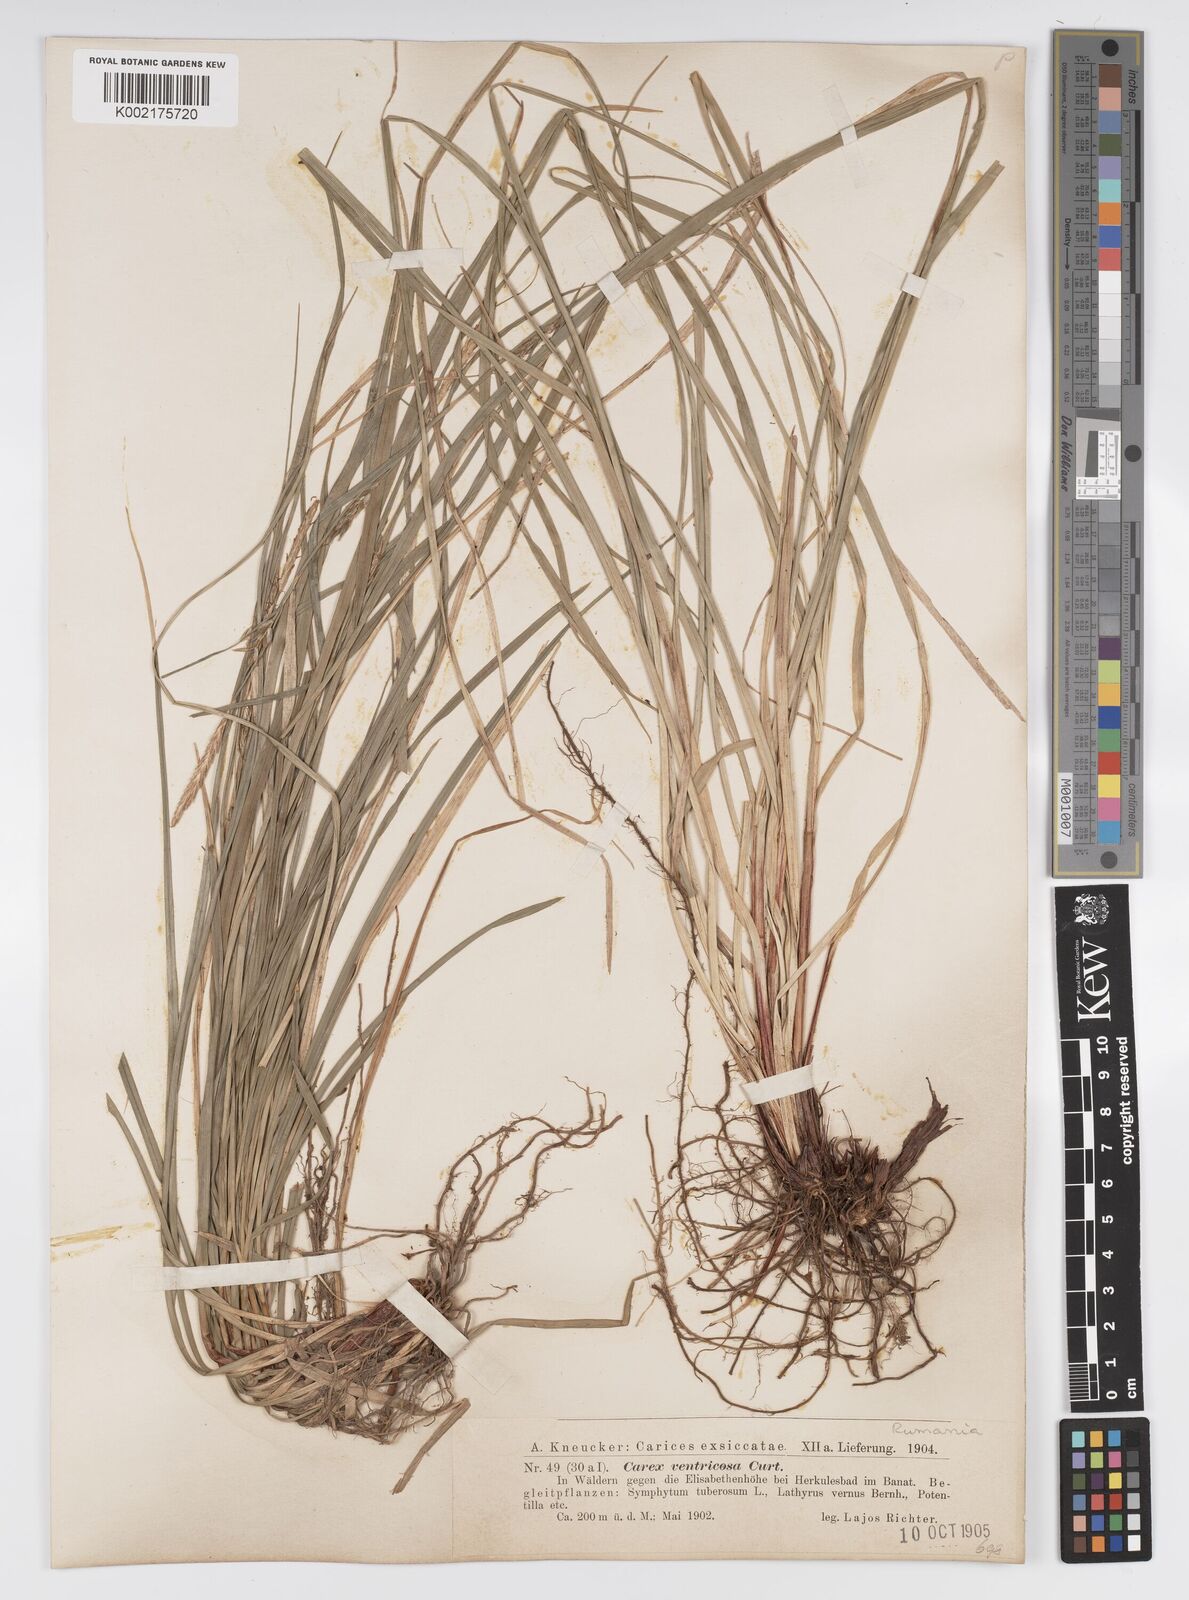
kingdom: Plantae
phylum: Tracheophyta
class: Liliopsida
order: Poales
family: Cyperaceae
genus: Carex
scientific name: Carex
